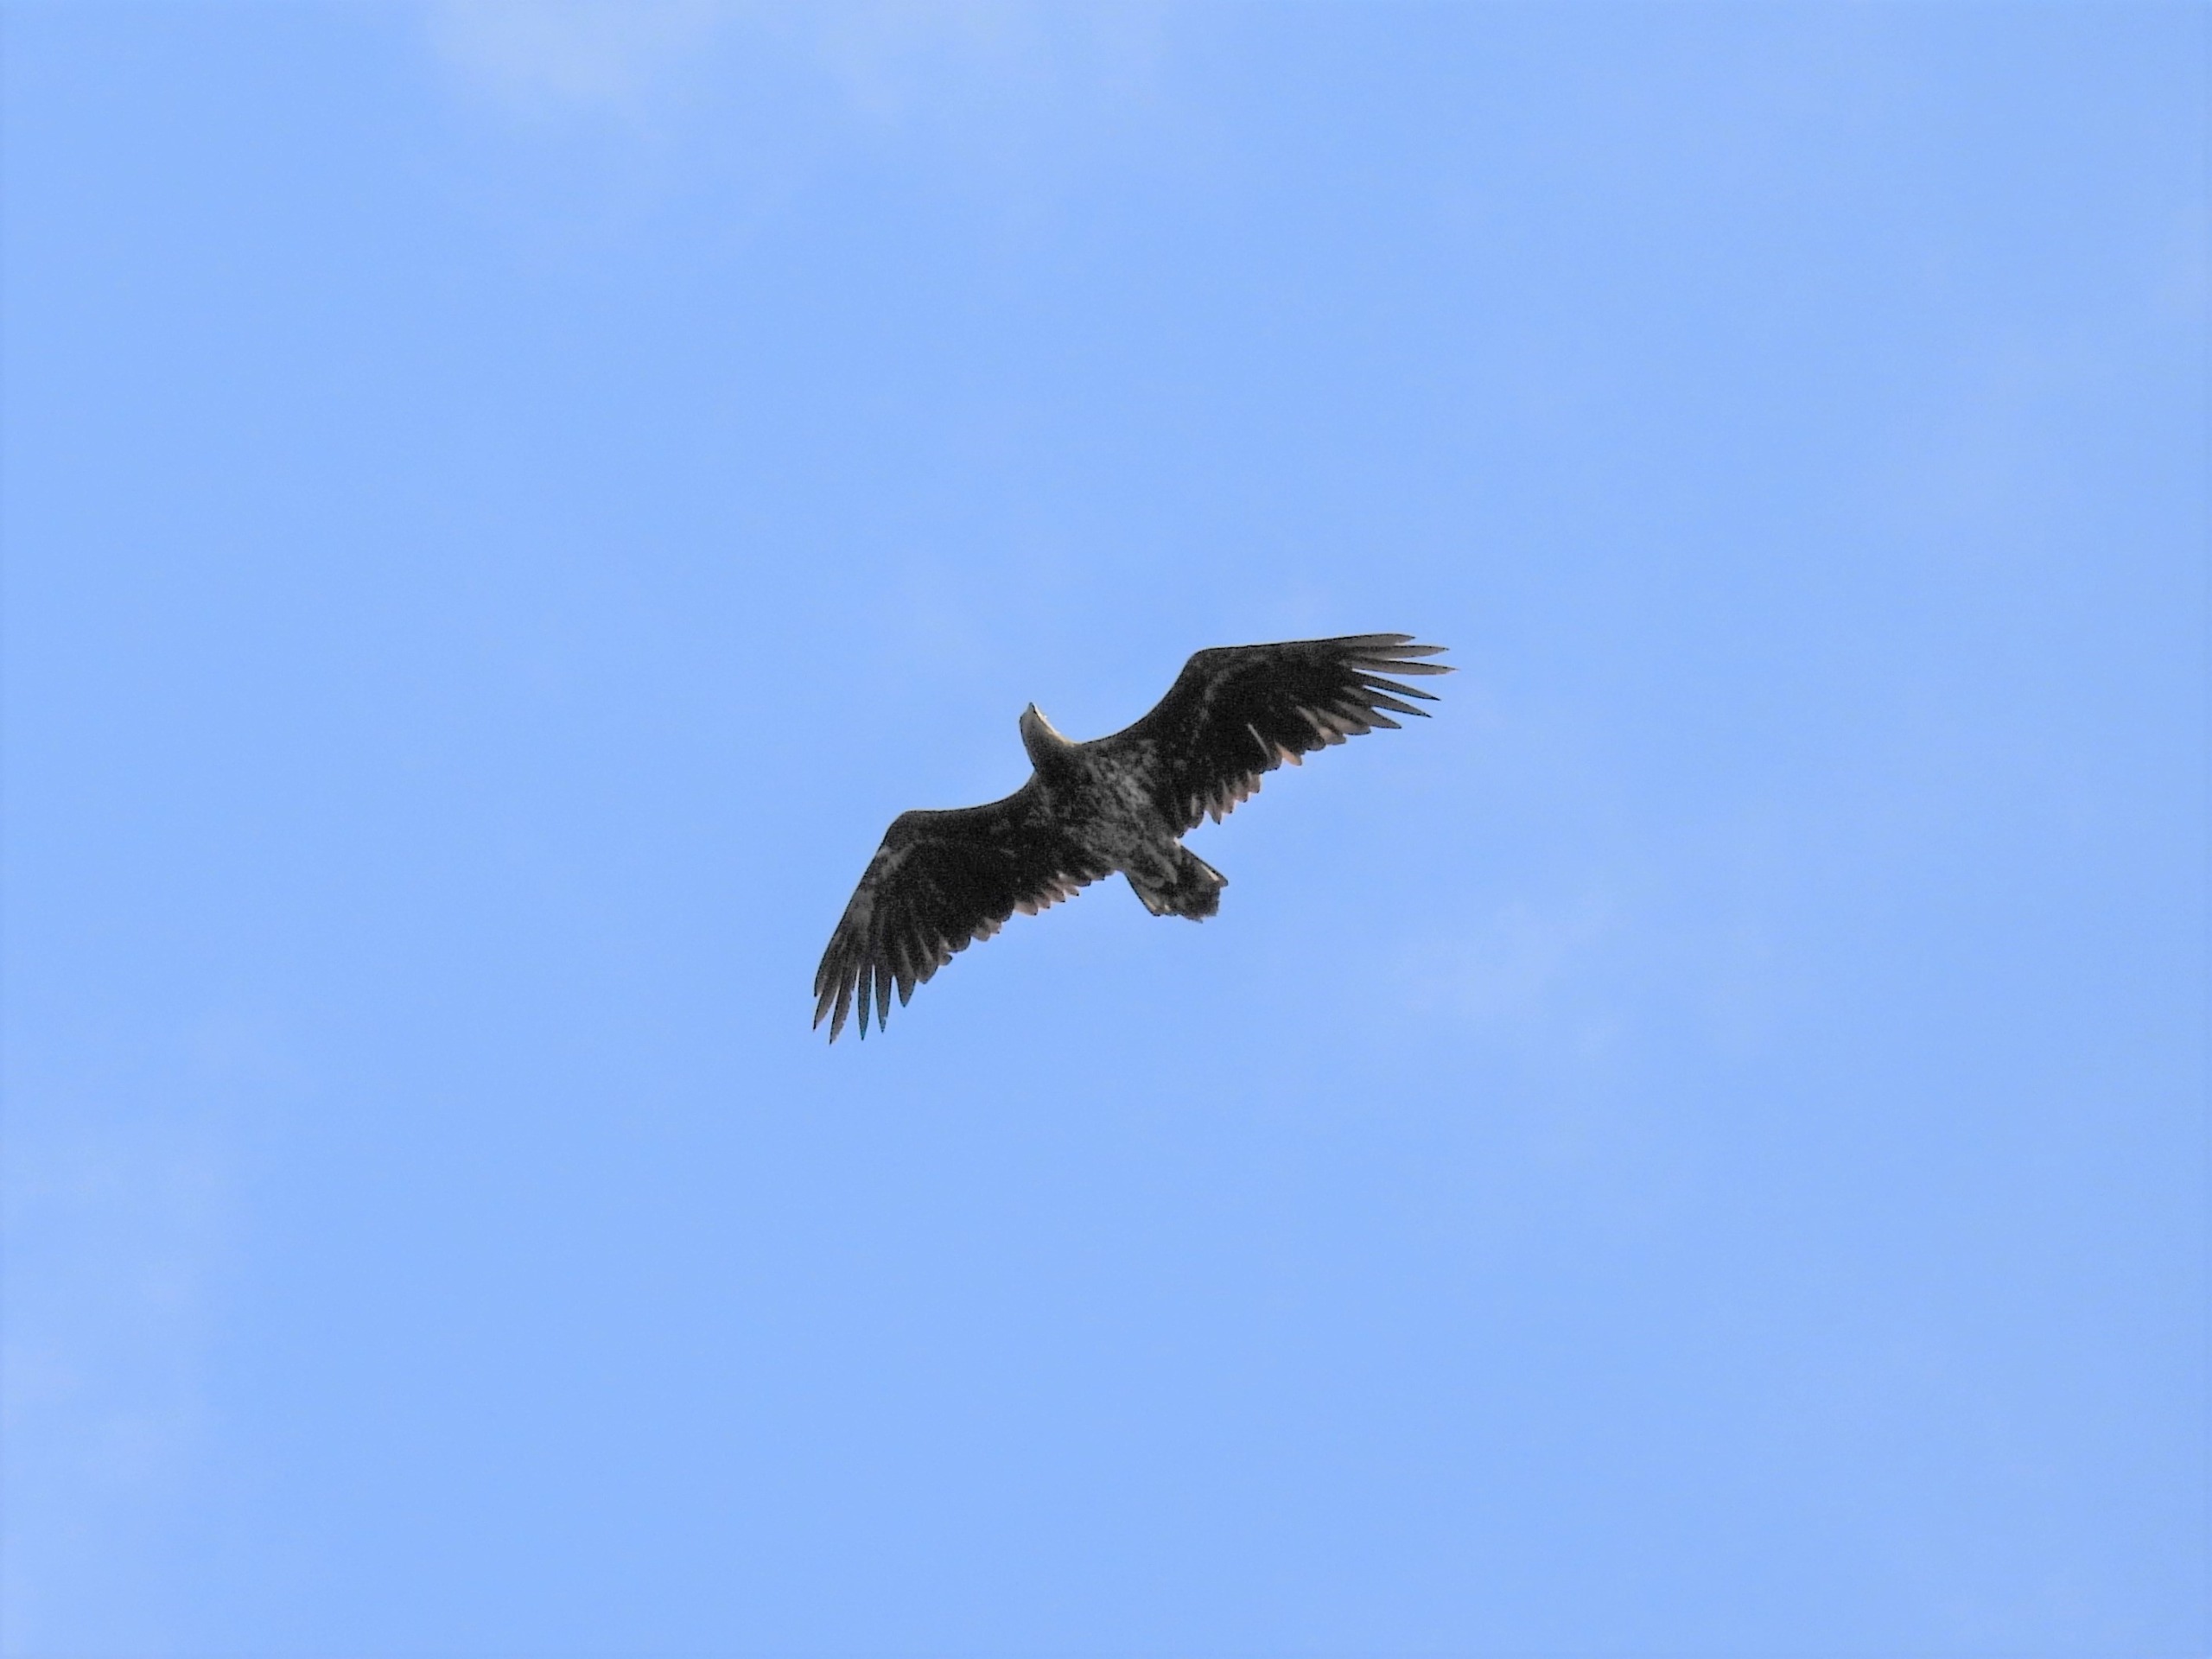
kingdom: Animalia
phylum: Chordata
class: Aves
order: Accipitriformes
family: Accipitridae
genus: Haliaeetus
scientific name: Haliaeetus albicilla
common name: Havørn
